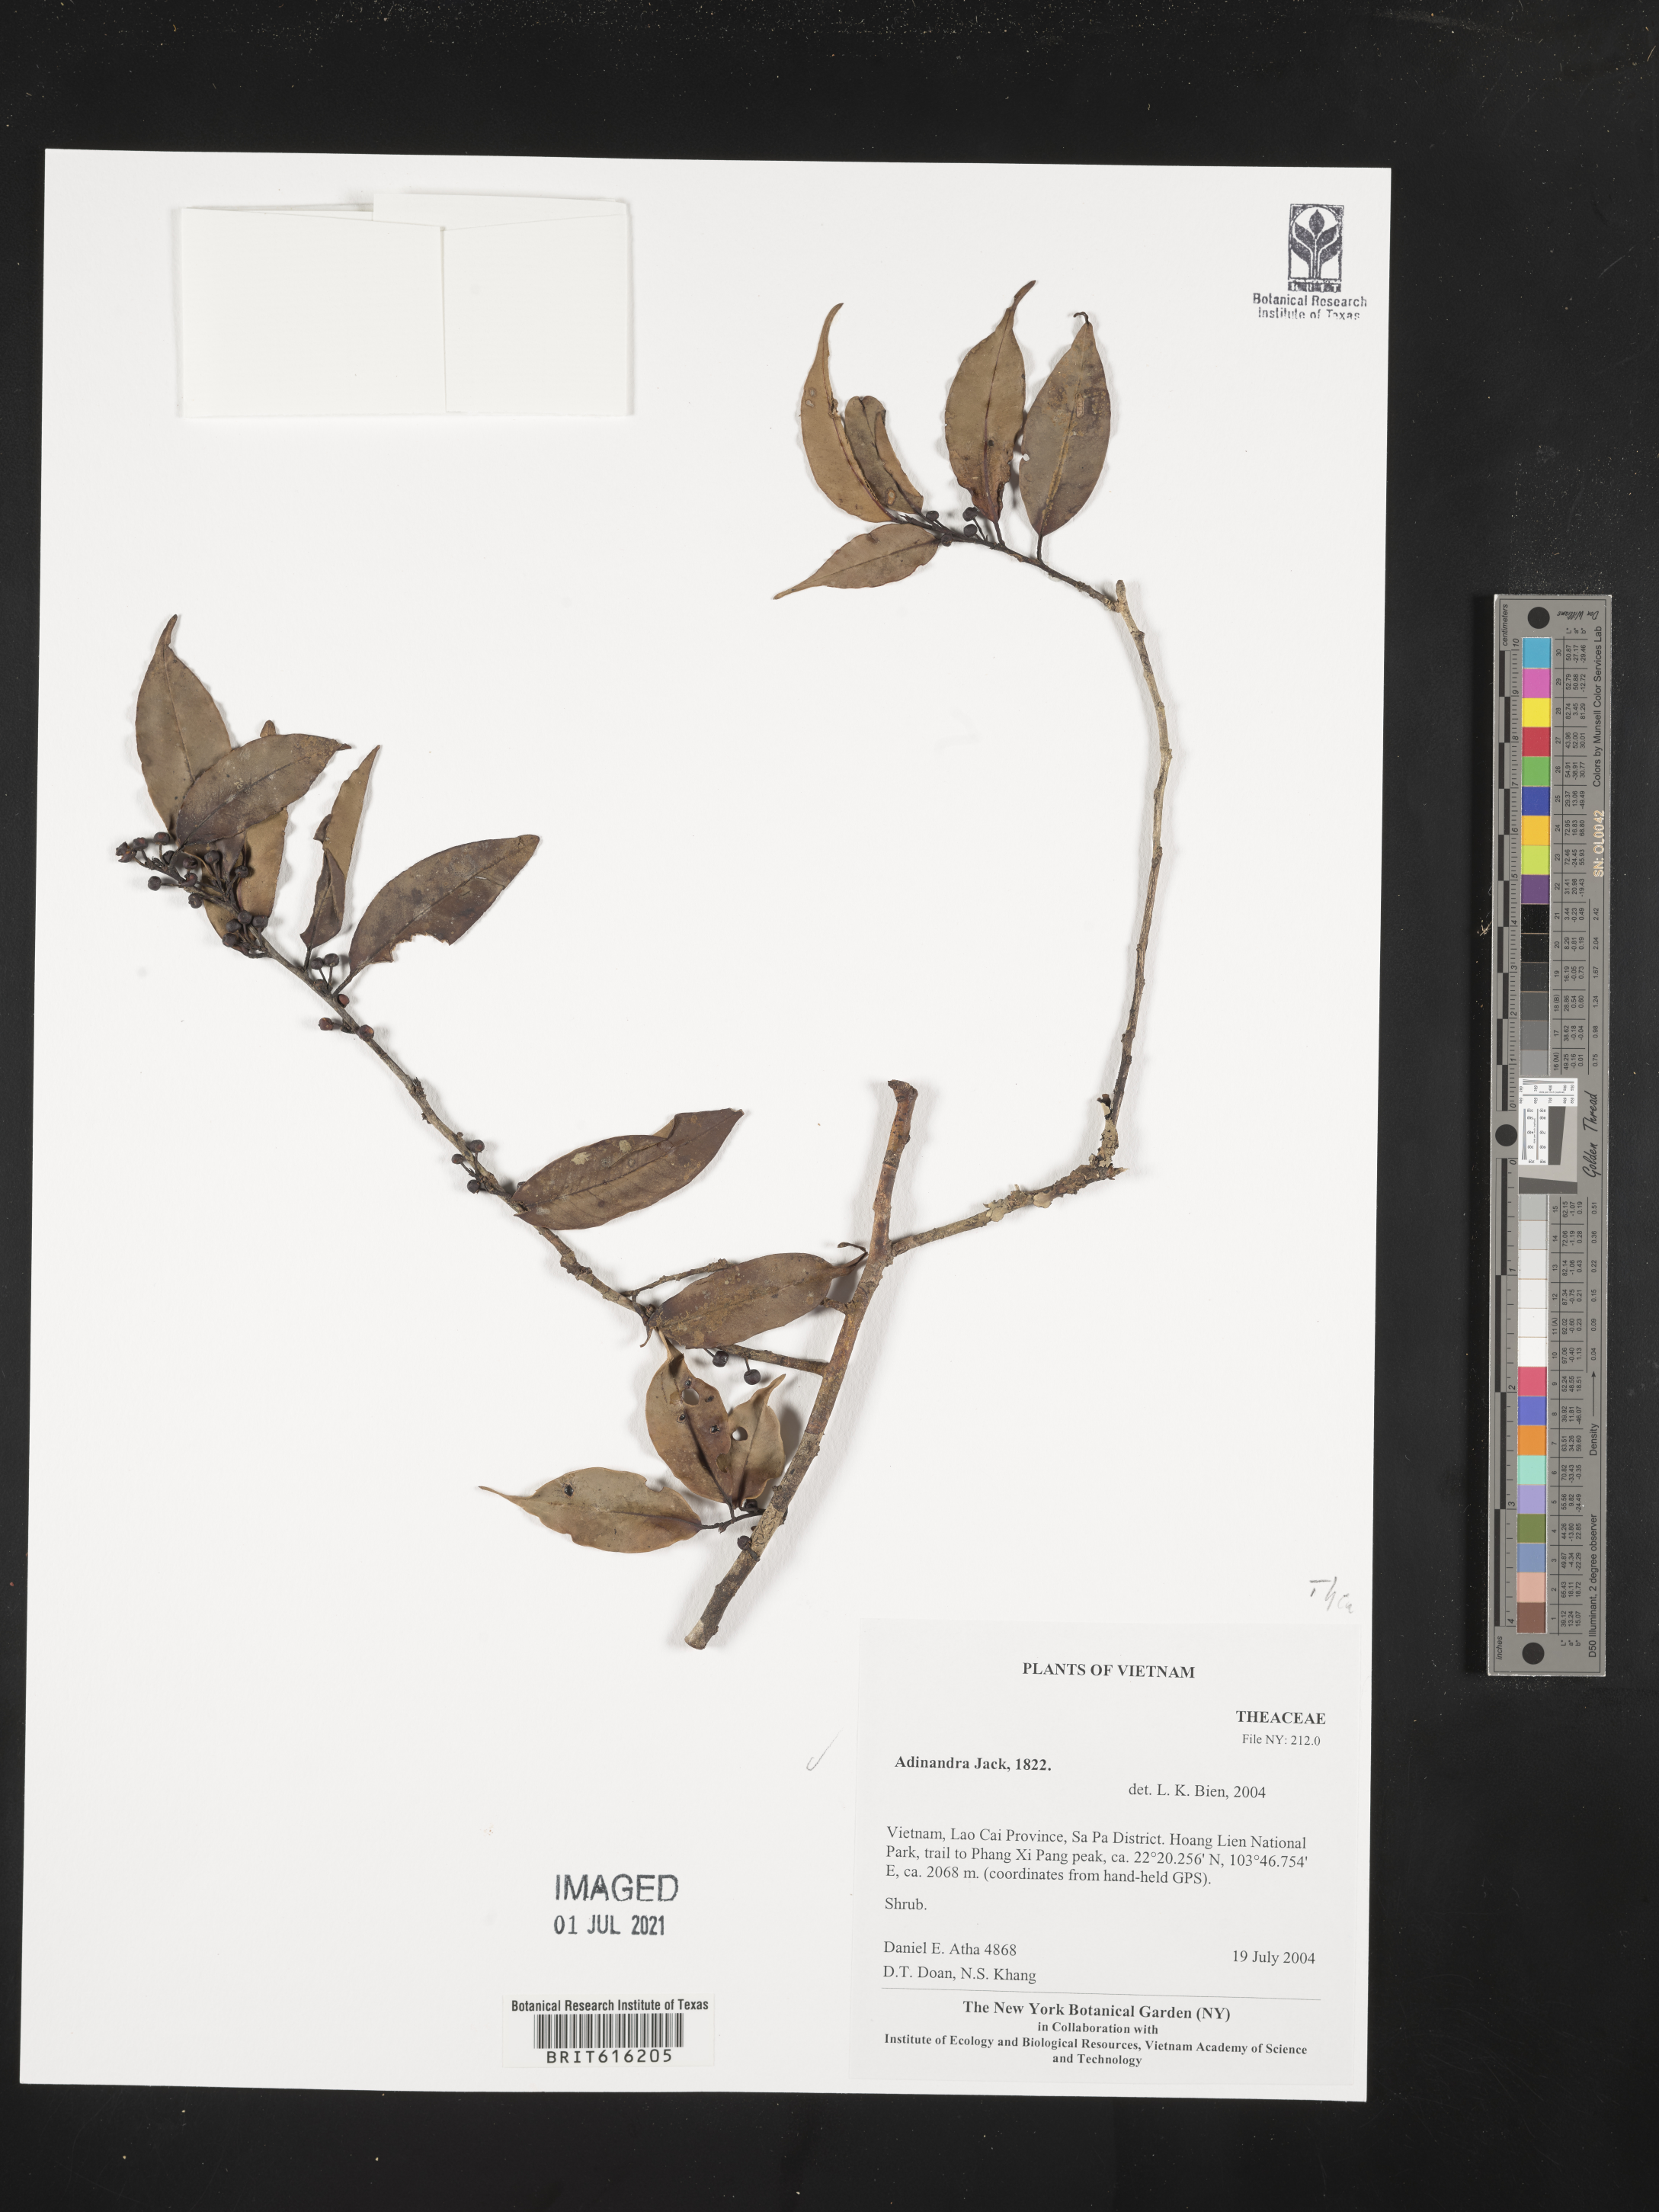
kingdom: Plantae
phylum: Tracheophyta
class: Magnoliopsida
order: Ericales
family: Pentaphylacaceae
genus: Adinandra
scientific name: Adinandra
